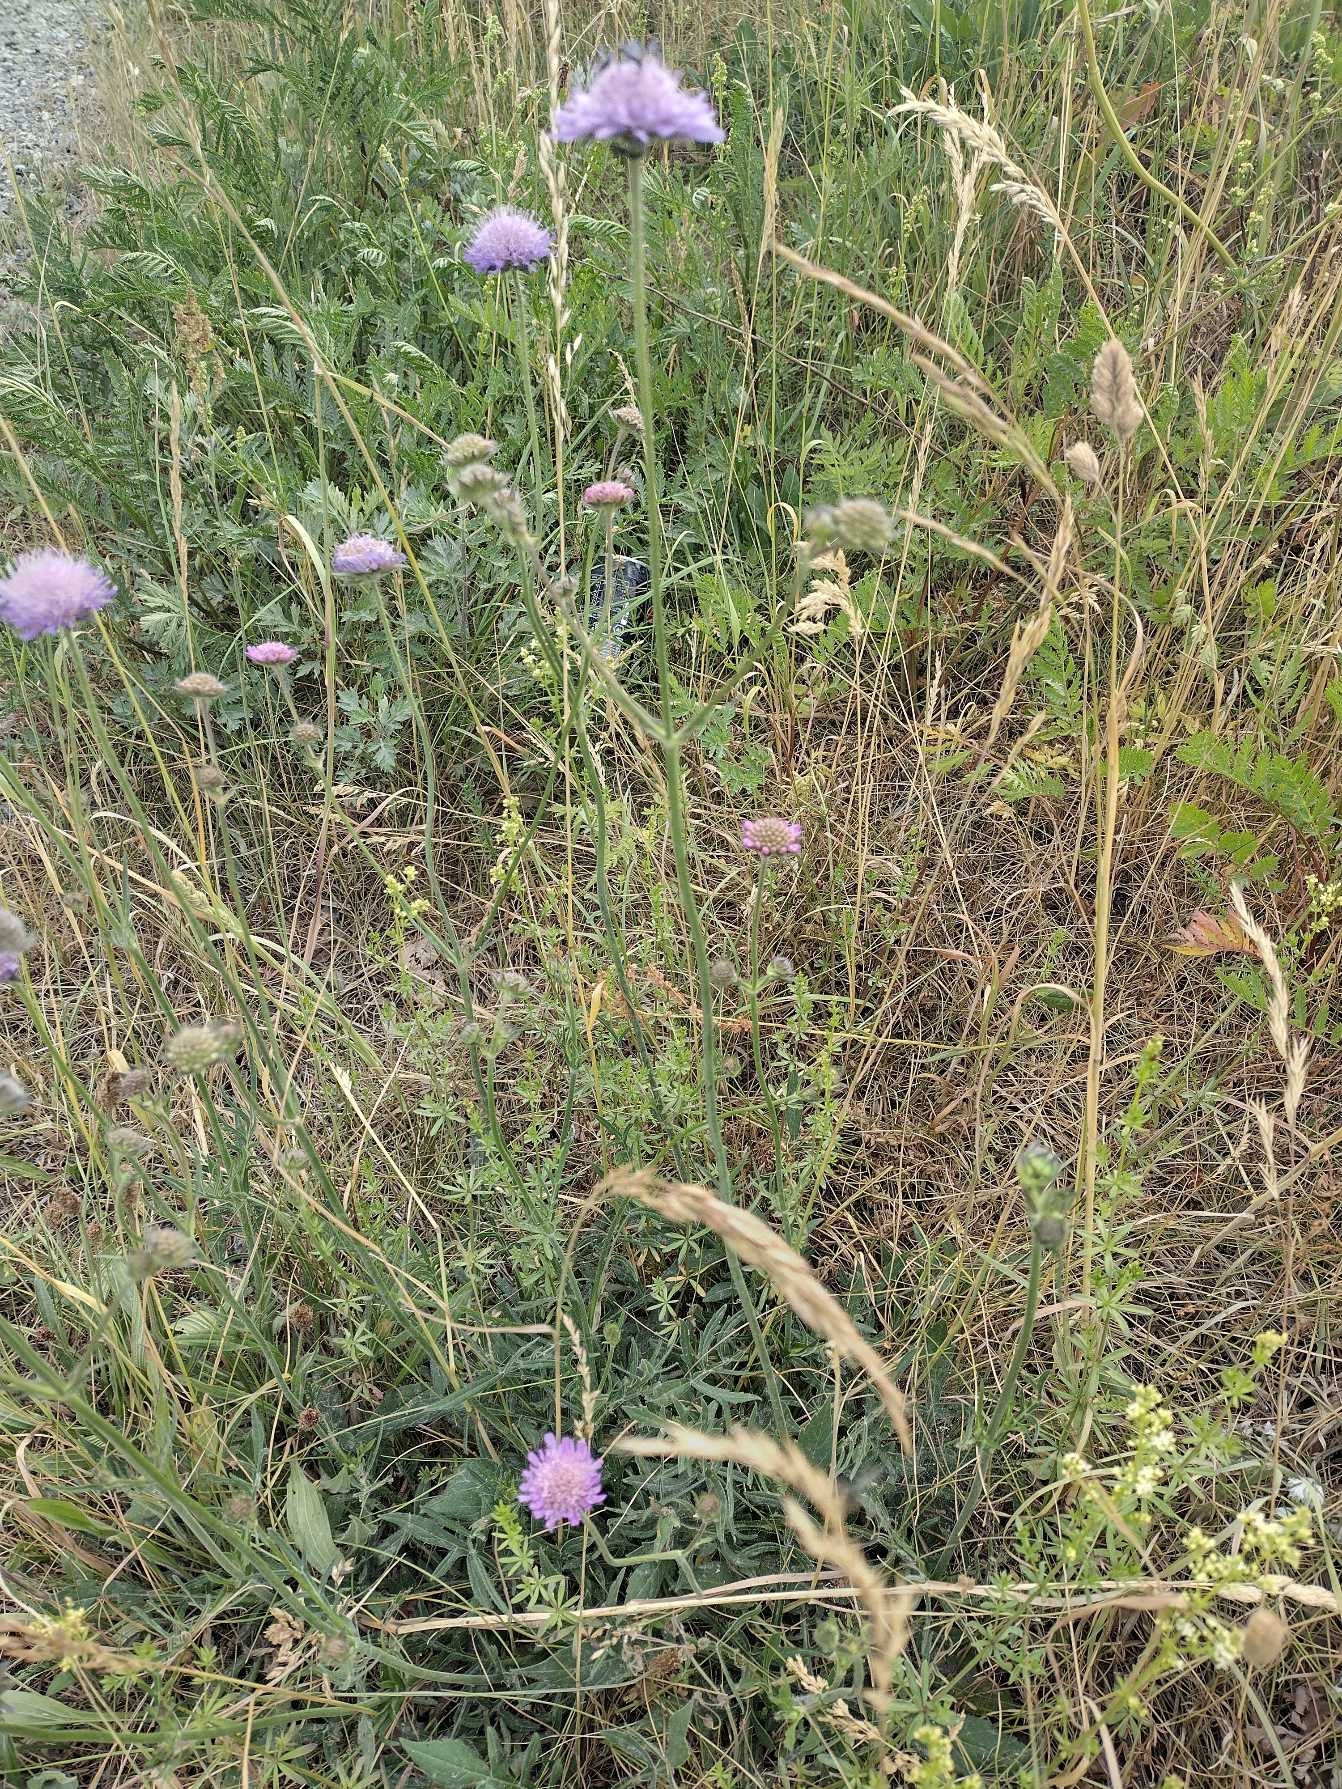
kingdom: Plantae
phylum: Tracheophyta
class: Magnoliopsida
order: Dipsacales
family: Caprifoliaceae
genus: Knautia
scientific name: Knautia arvensis
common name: Blåhat
